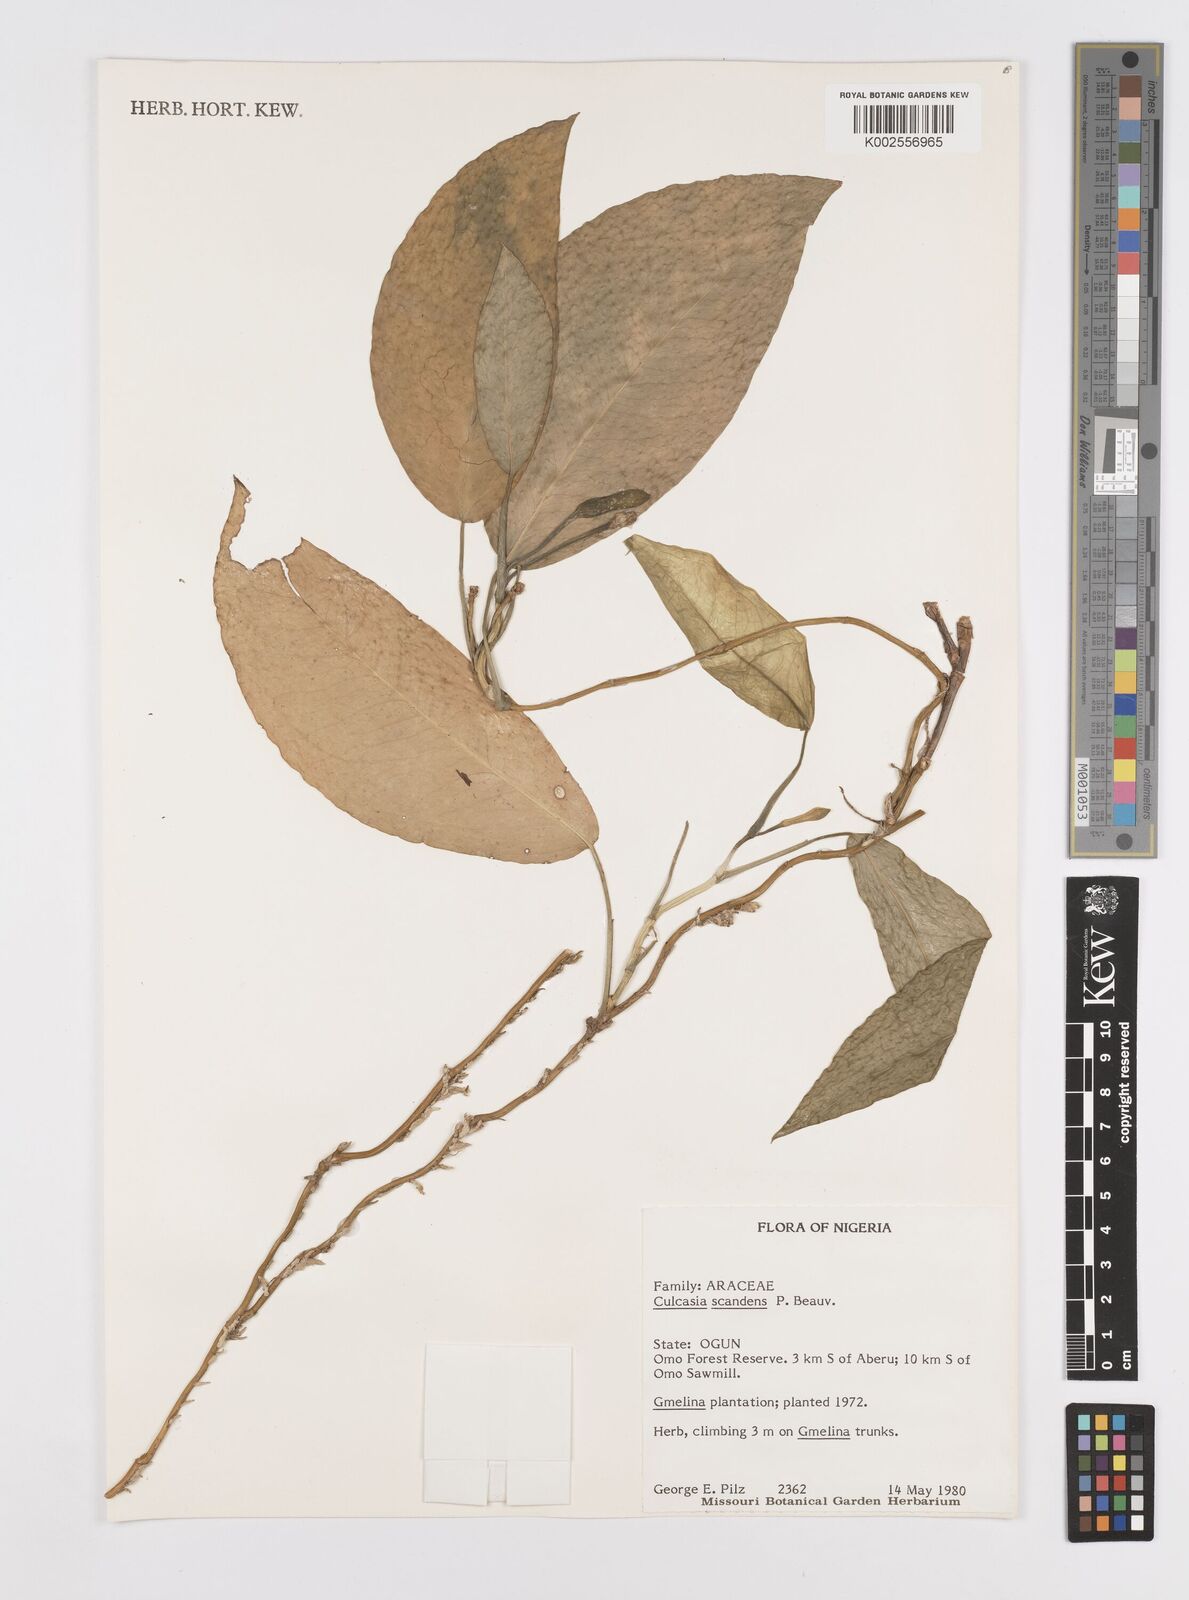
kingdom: Plantae
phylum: Tracheophyta
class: Liliopsida
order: Alismatales
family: Araceae
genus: Culcasia
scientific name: Culcasia scandens
